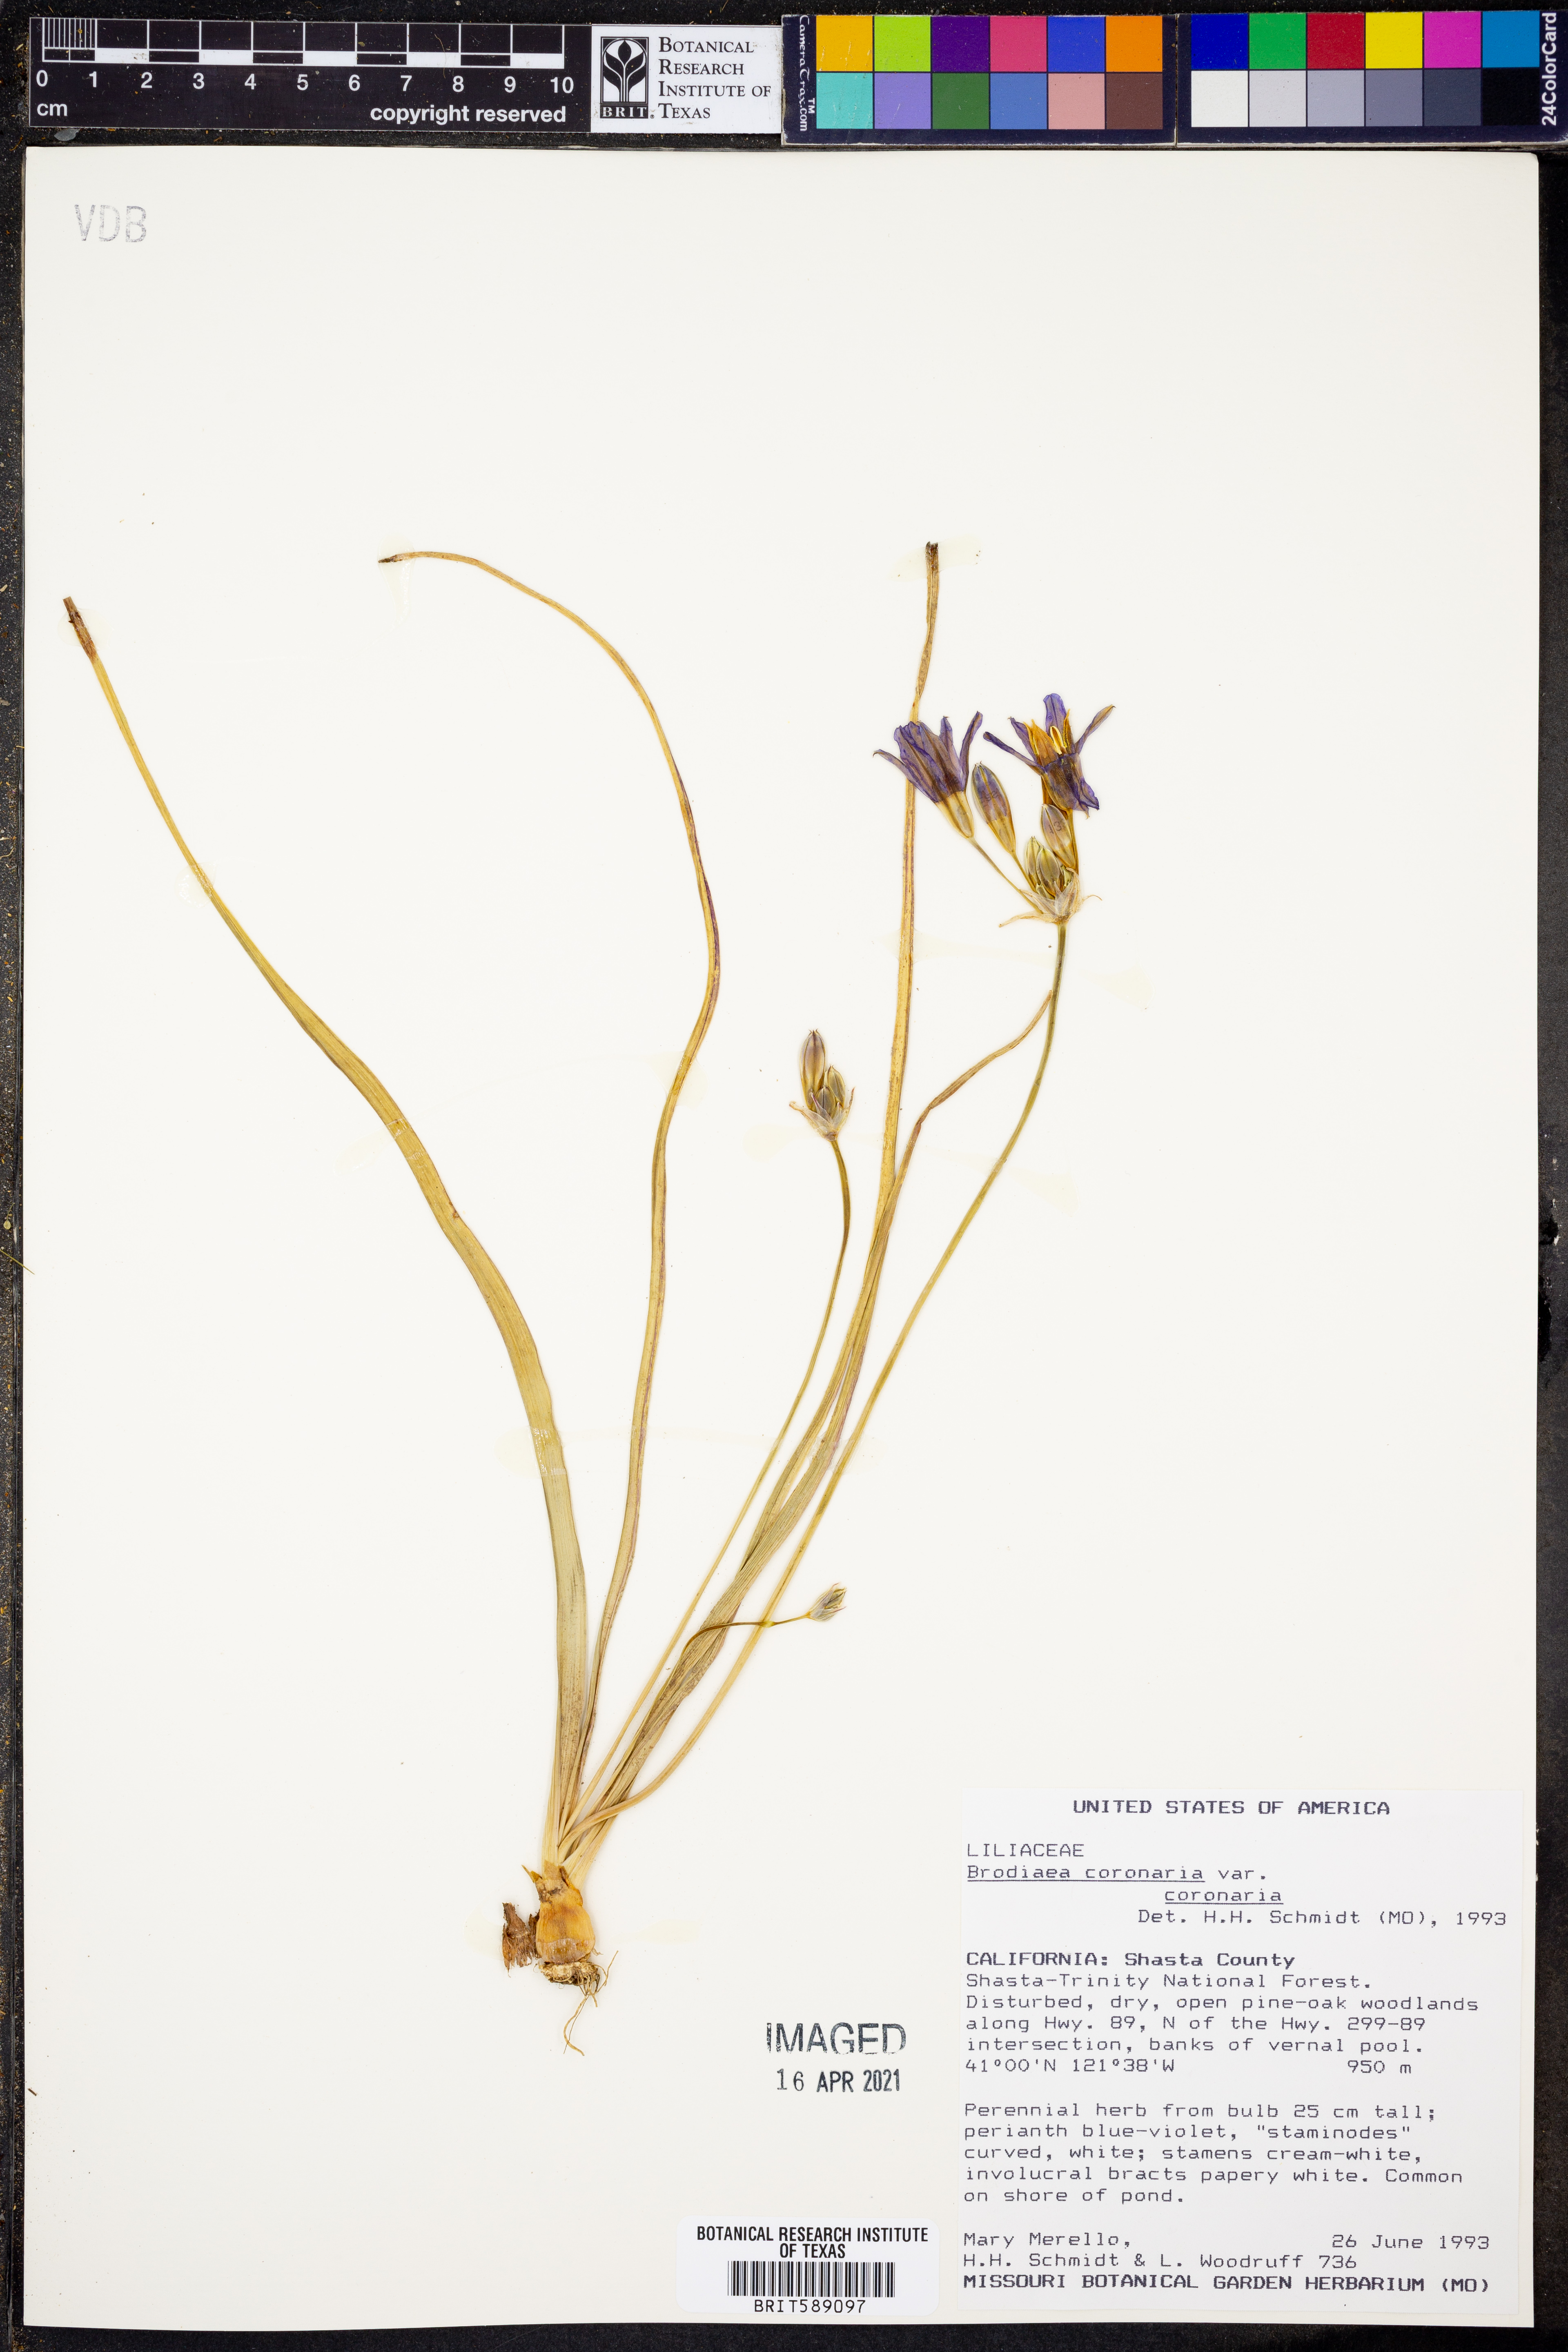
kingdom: Plantae
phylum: Tracheophyta
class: Liliopsida
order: Asparagales
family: Asparagaceae
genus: Brodiaea
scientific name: Brodiaea coronaria
